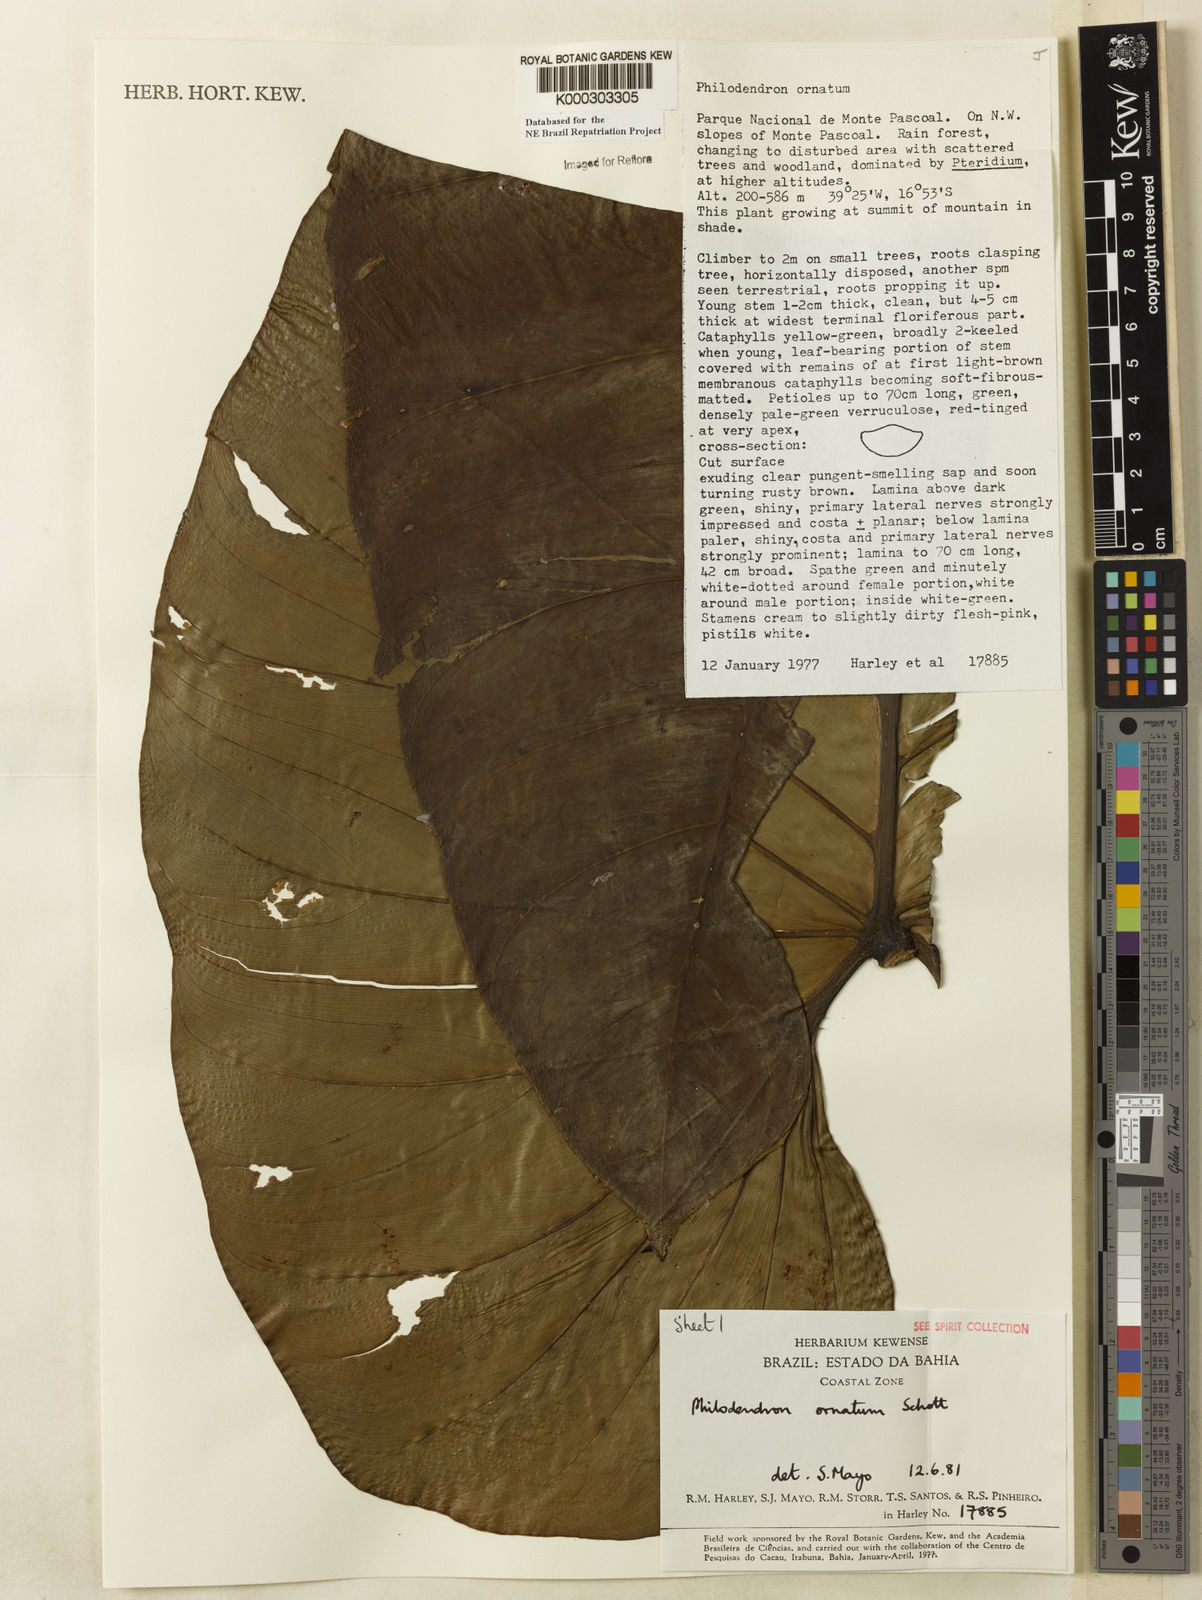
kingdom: Plantae
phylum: Tracheophyta
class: Liliopsida
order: Alismatales
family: Araceae
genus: Philodendron
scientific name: Philodendron ornatum
